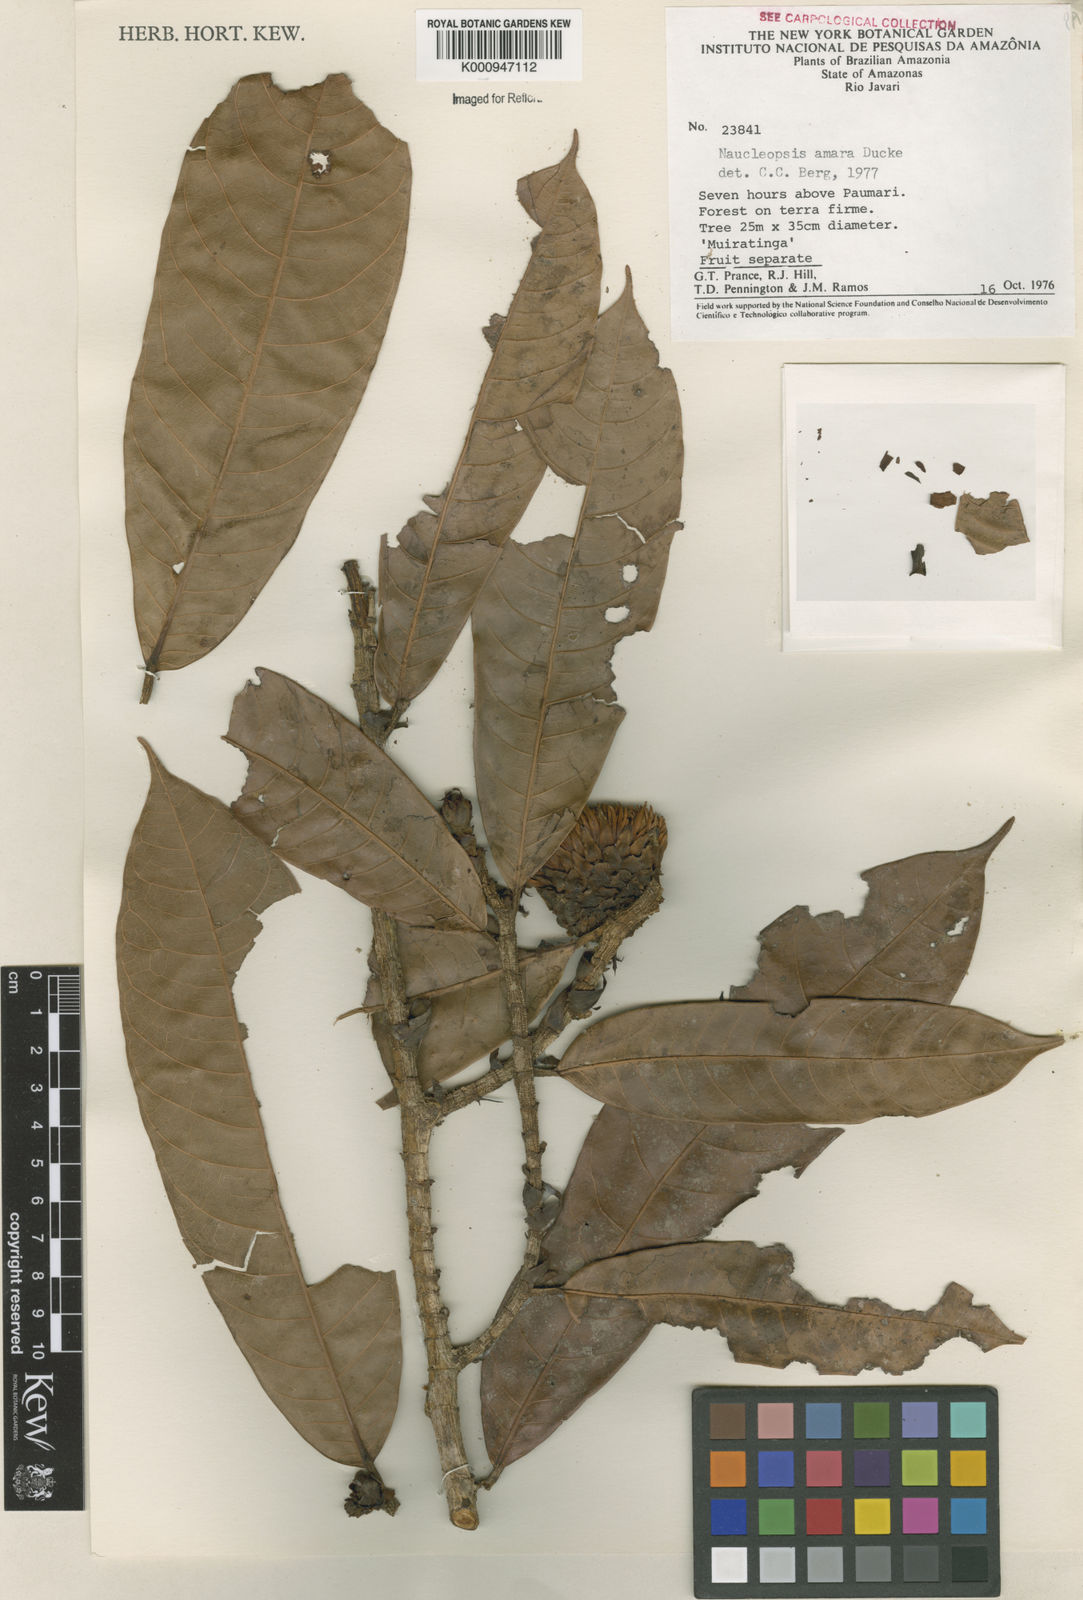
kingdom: Plantae
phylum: Tracheophyta
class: Magnoliopsida
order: Rosales
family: Moraceae
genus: Naucleopsis
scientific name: Naucleopsis ulei
